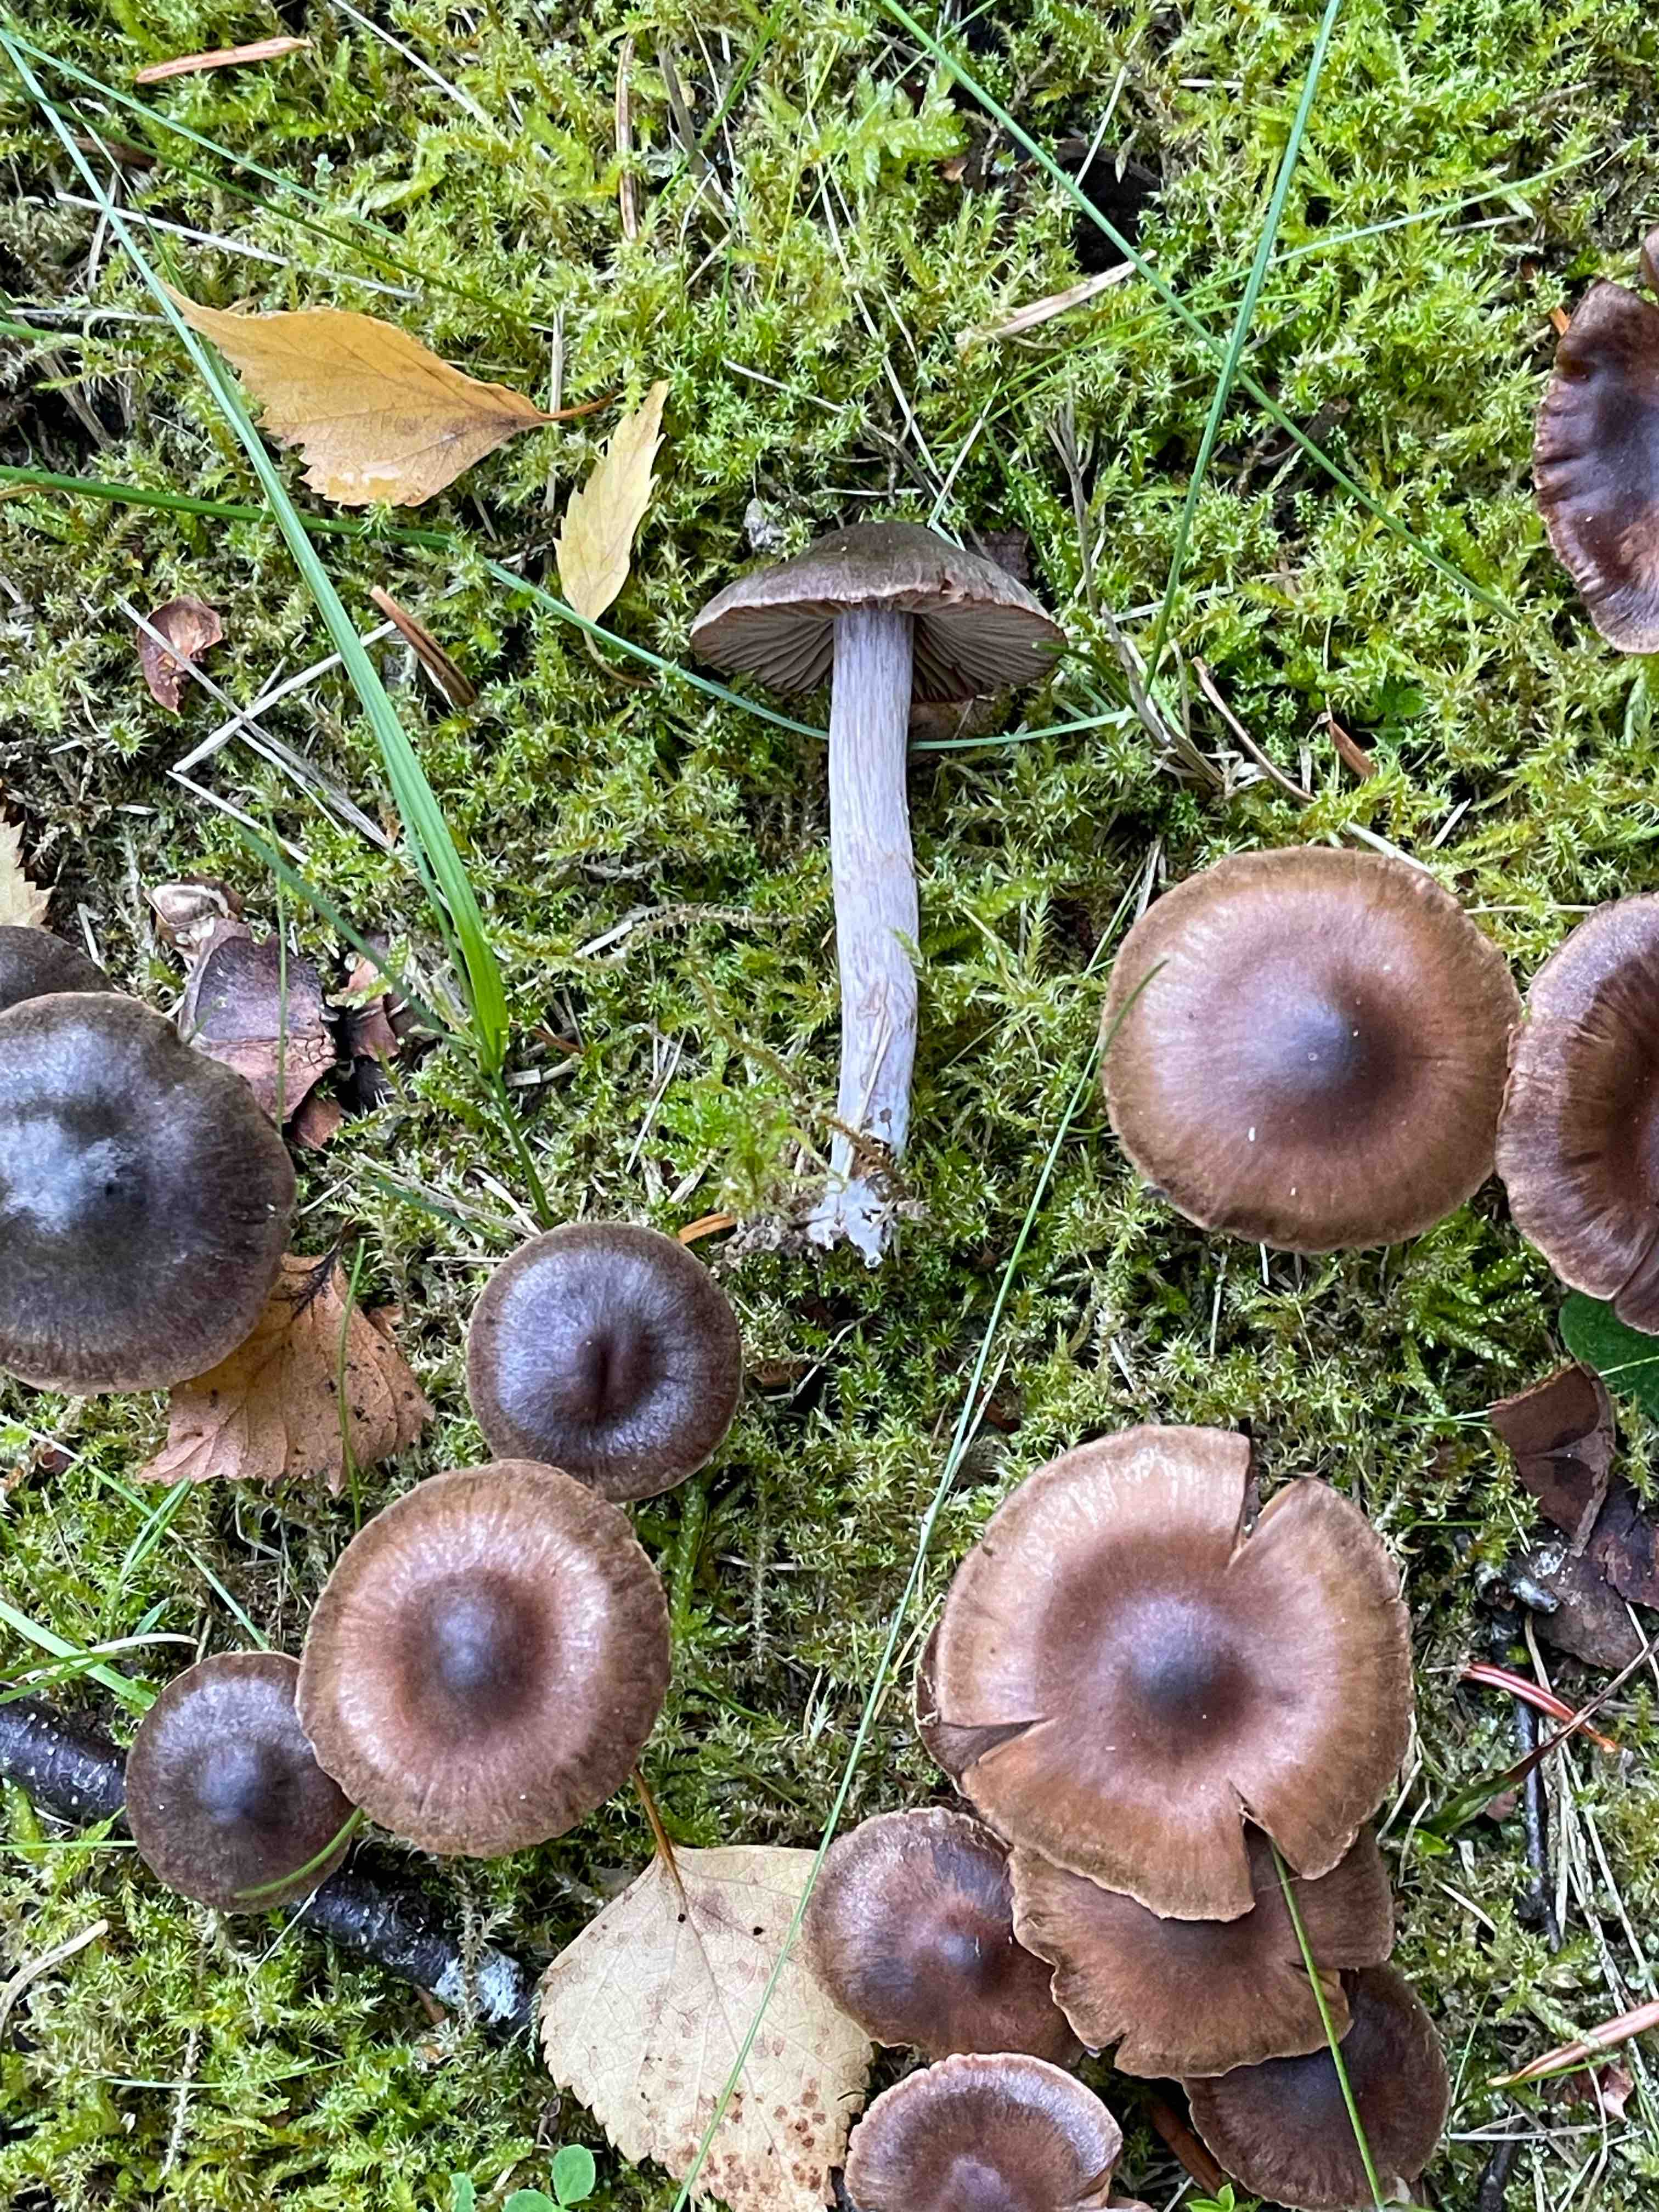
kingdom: Fungi
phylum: Basidiomycota
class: Agaricomycetes
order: Agaricales
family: Cortinariaceae
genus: Cortinarius
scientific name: Cortinarius
